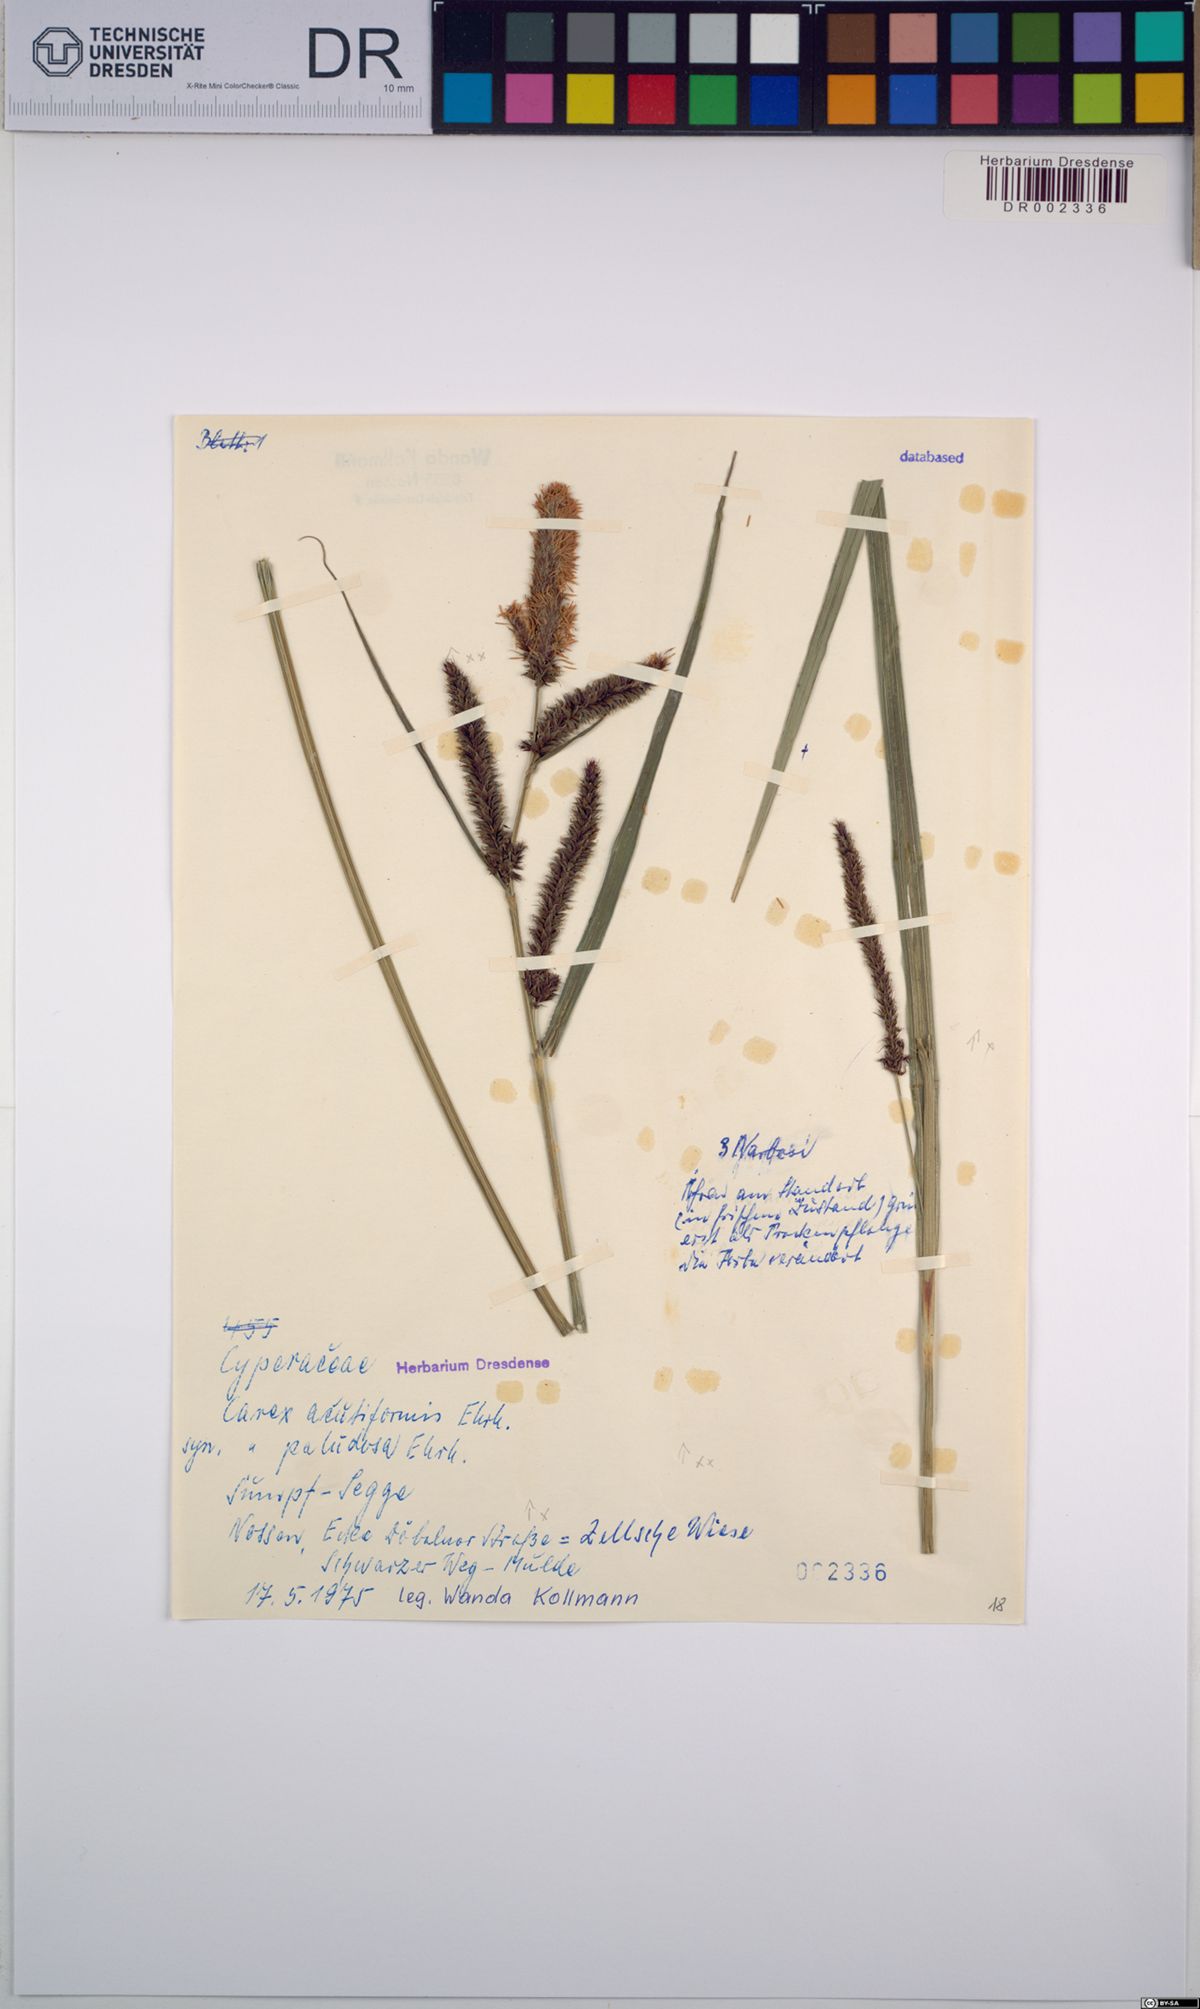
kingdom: Plantae
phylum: Tracheophyta
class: Liliopsida
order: Poales
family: Cyperaceae
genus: Carex
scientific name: Carex acutiformis
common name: Lesser pond-sedge
